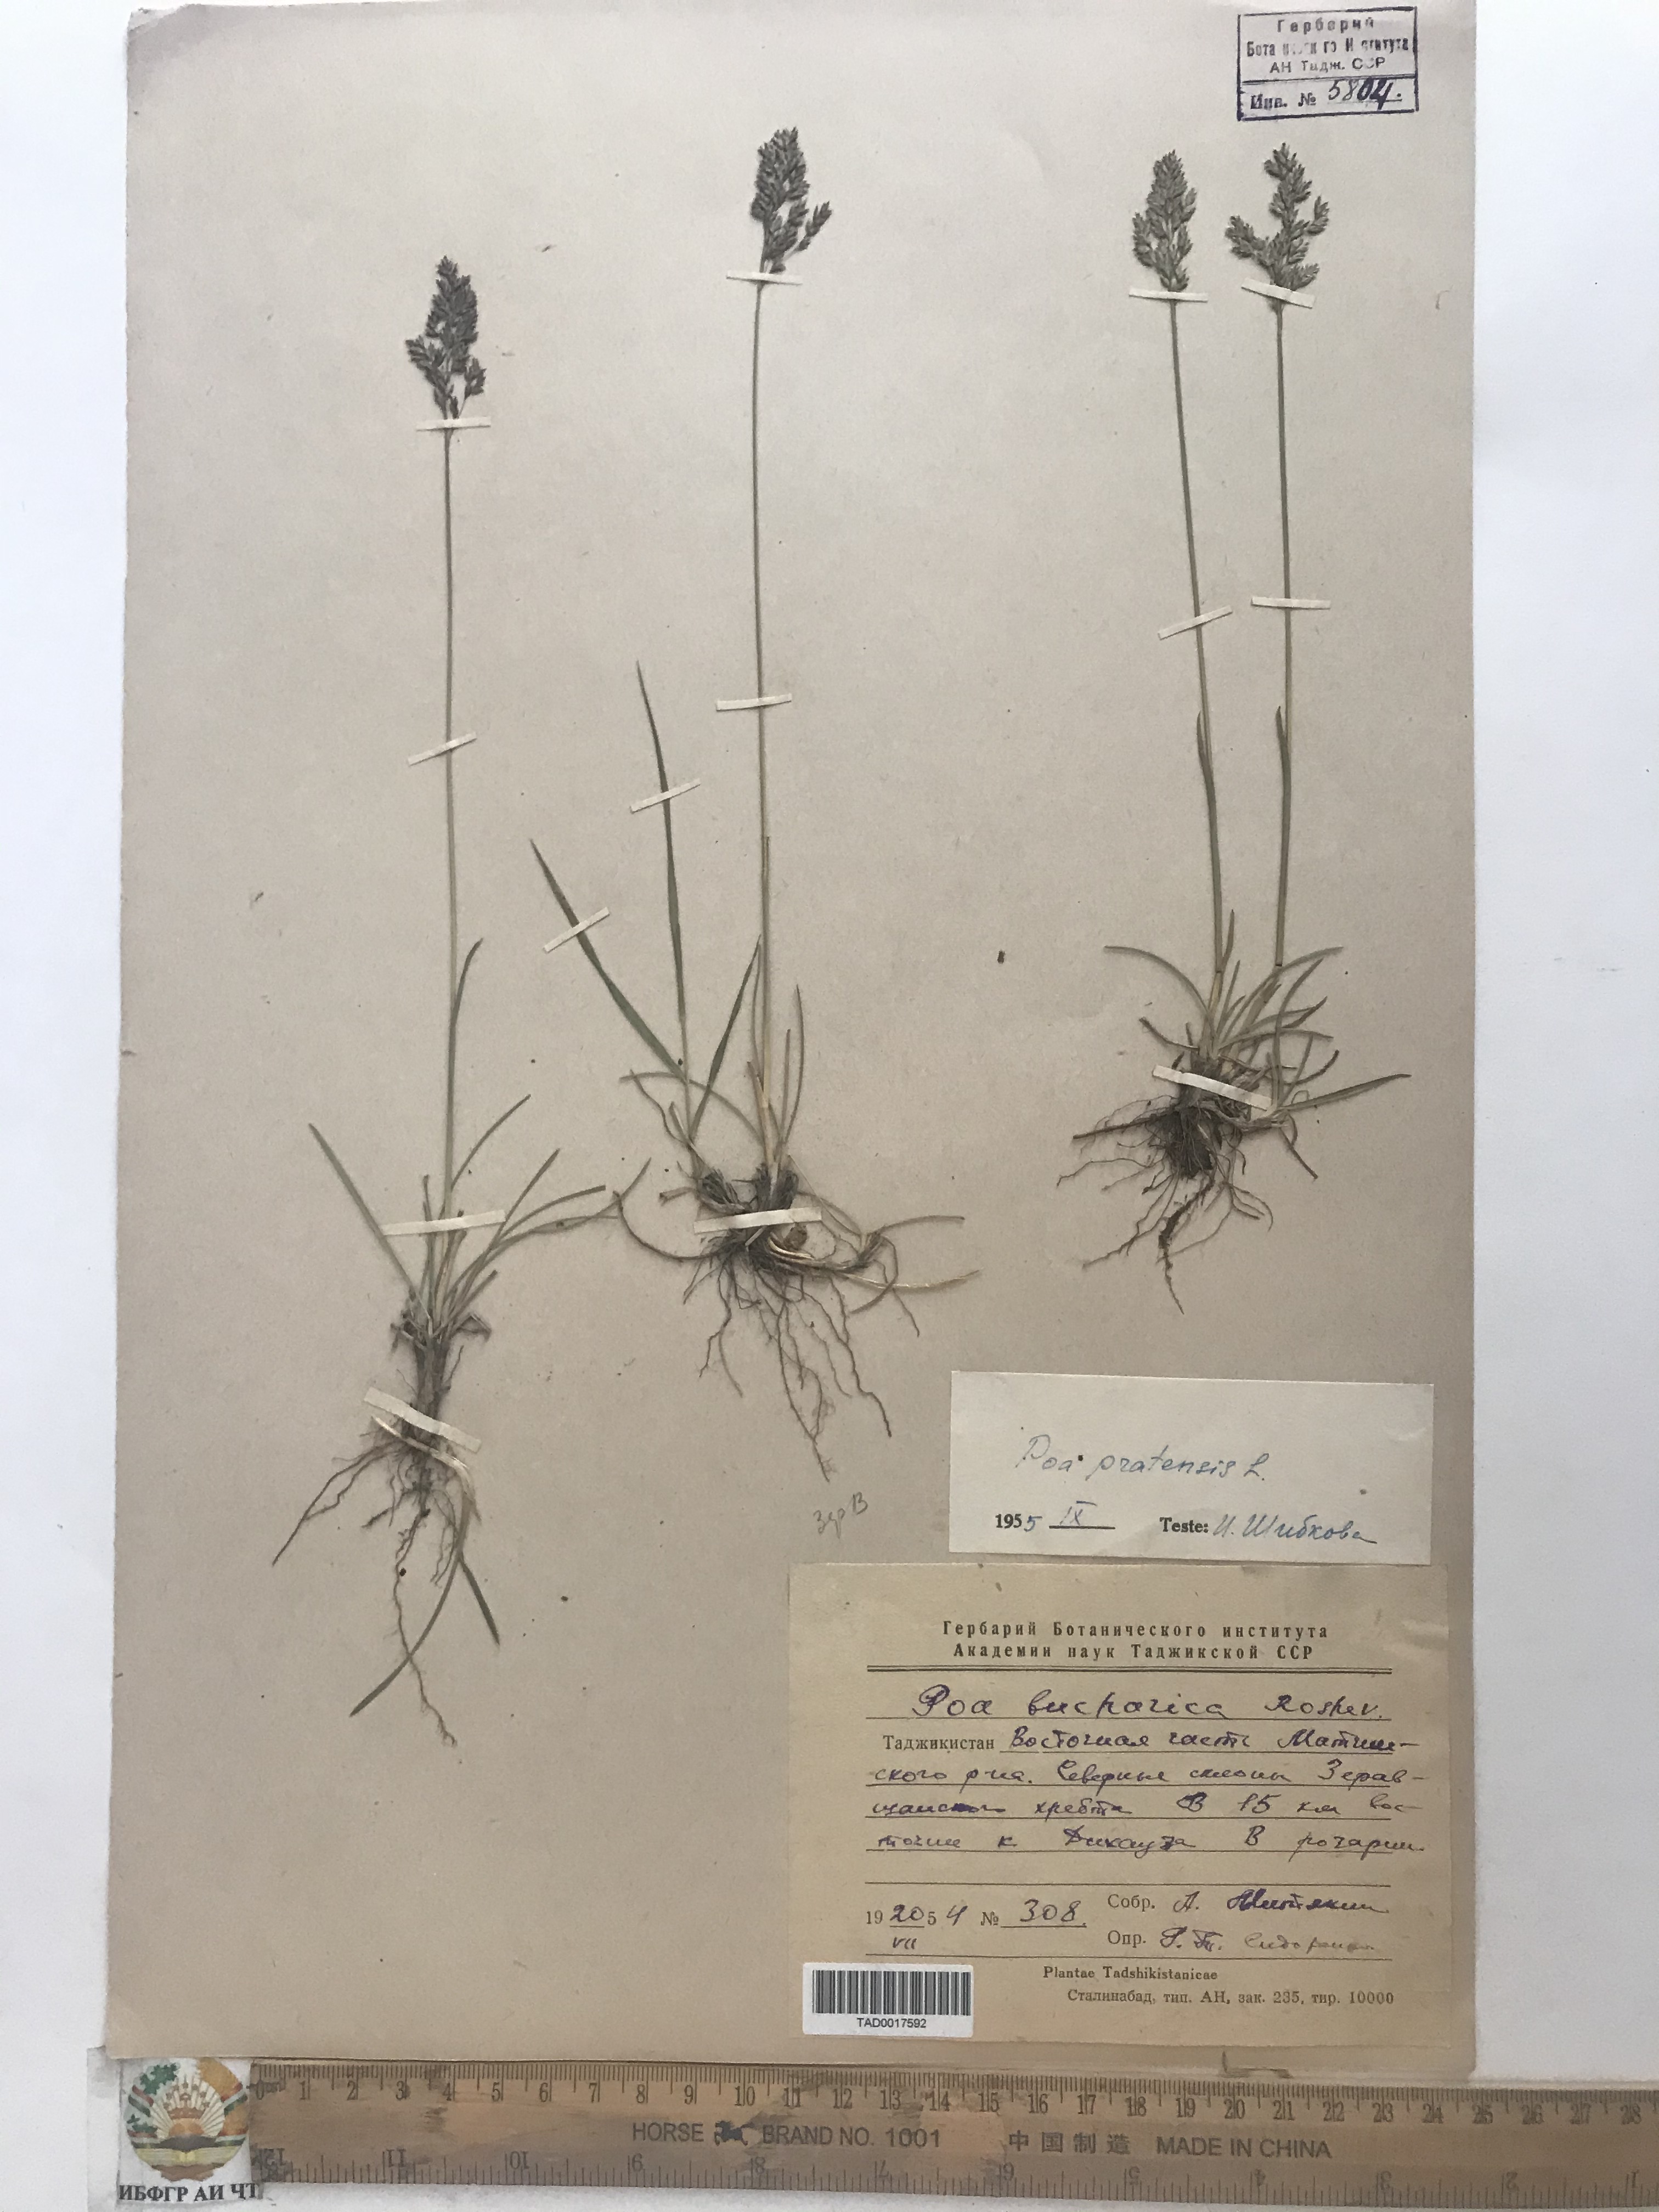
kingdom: Plantae
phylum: Tracheophyta
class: Liliopsida
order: Poales
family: Poaceae
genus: Poa
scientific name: Poa pratensis
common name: Kentucky bluegrass
